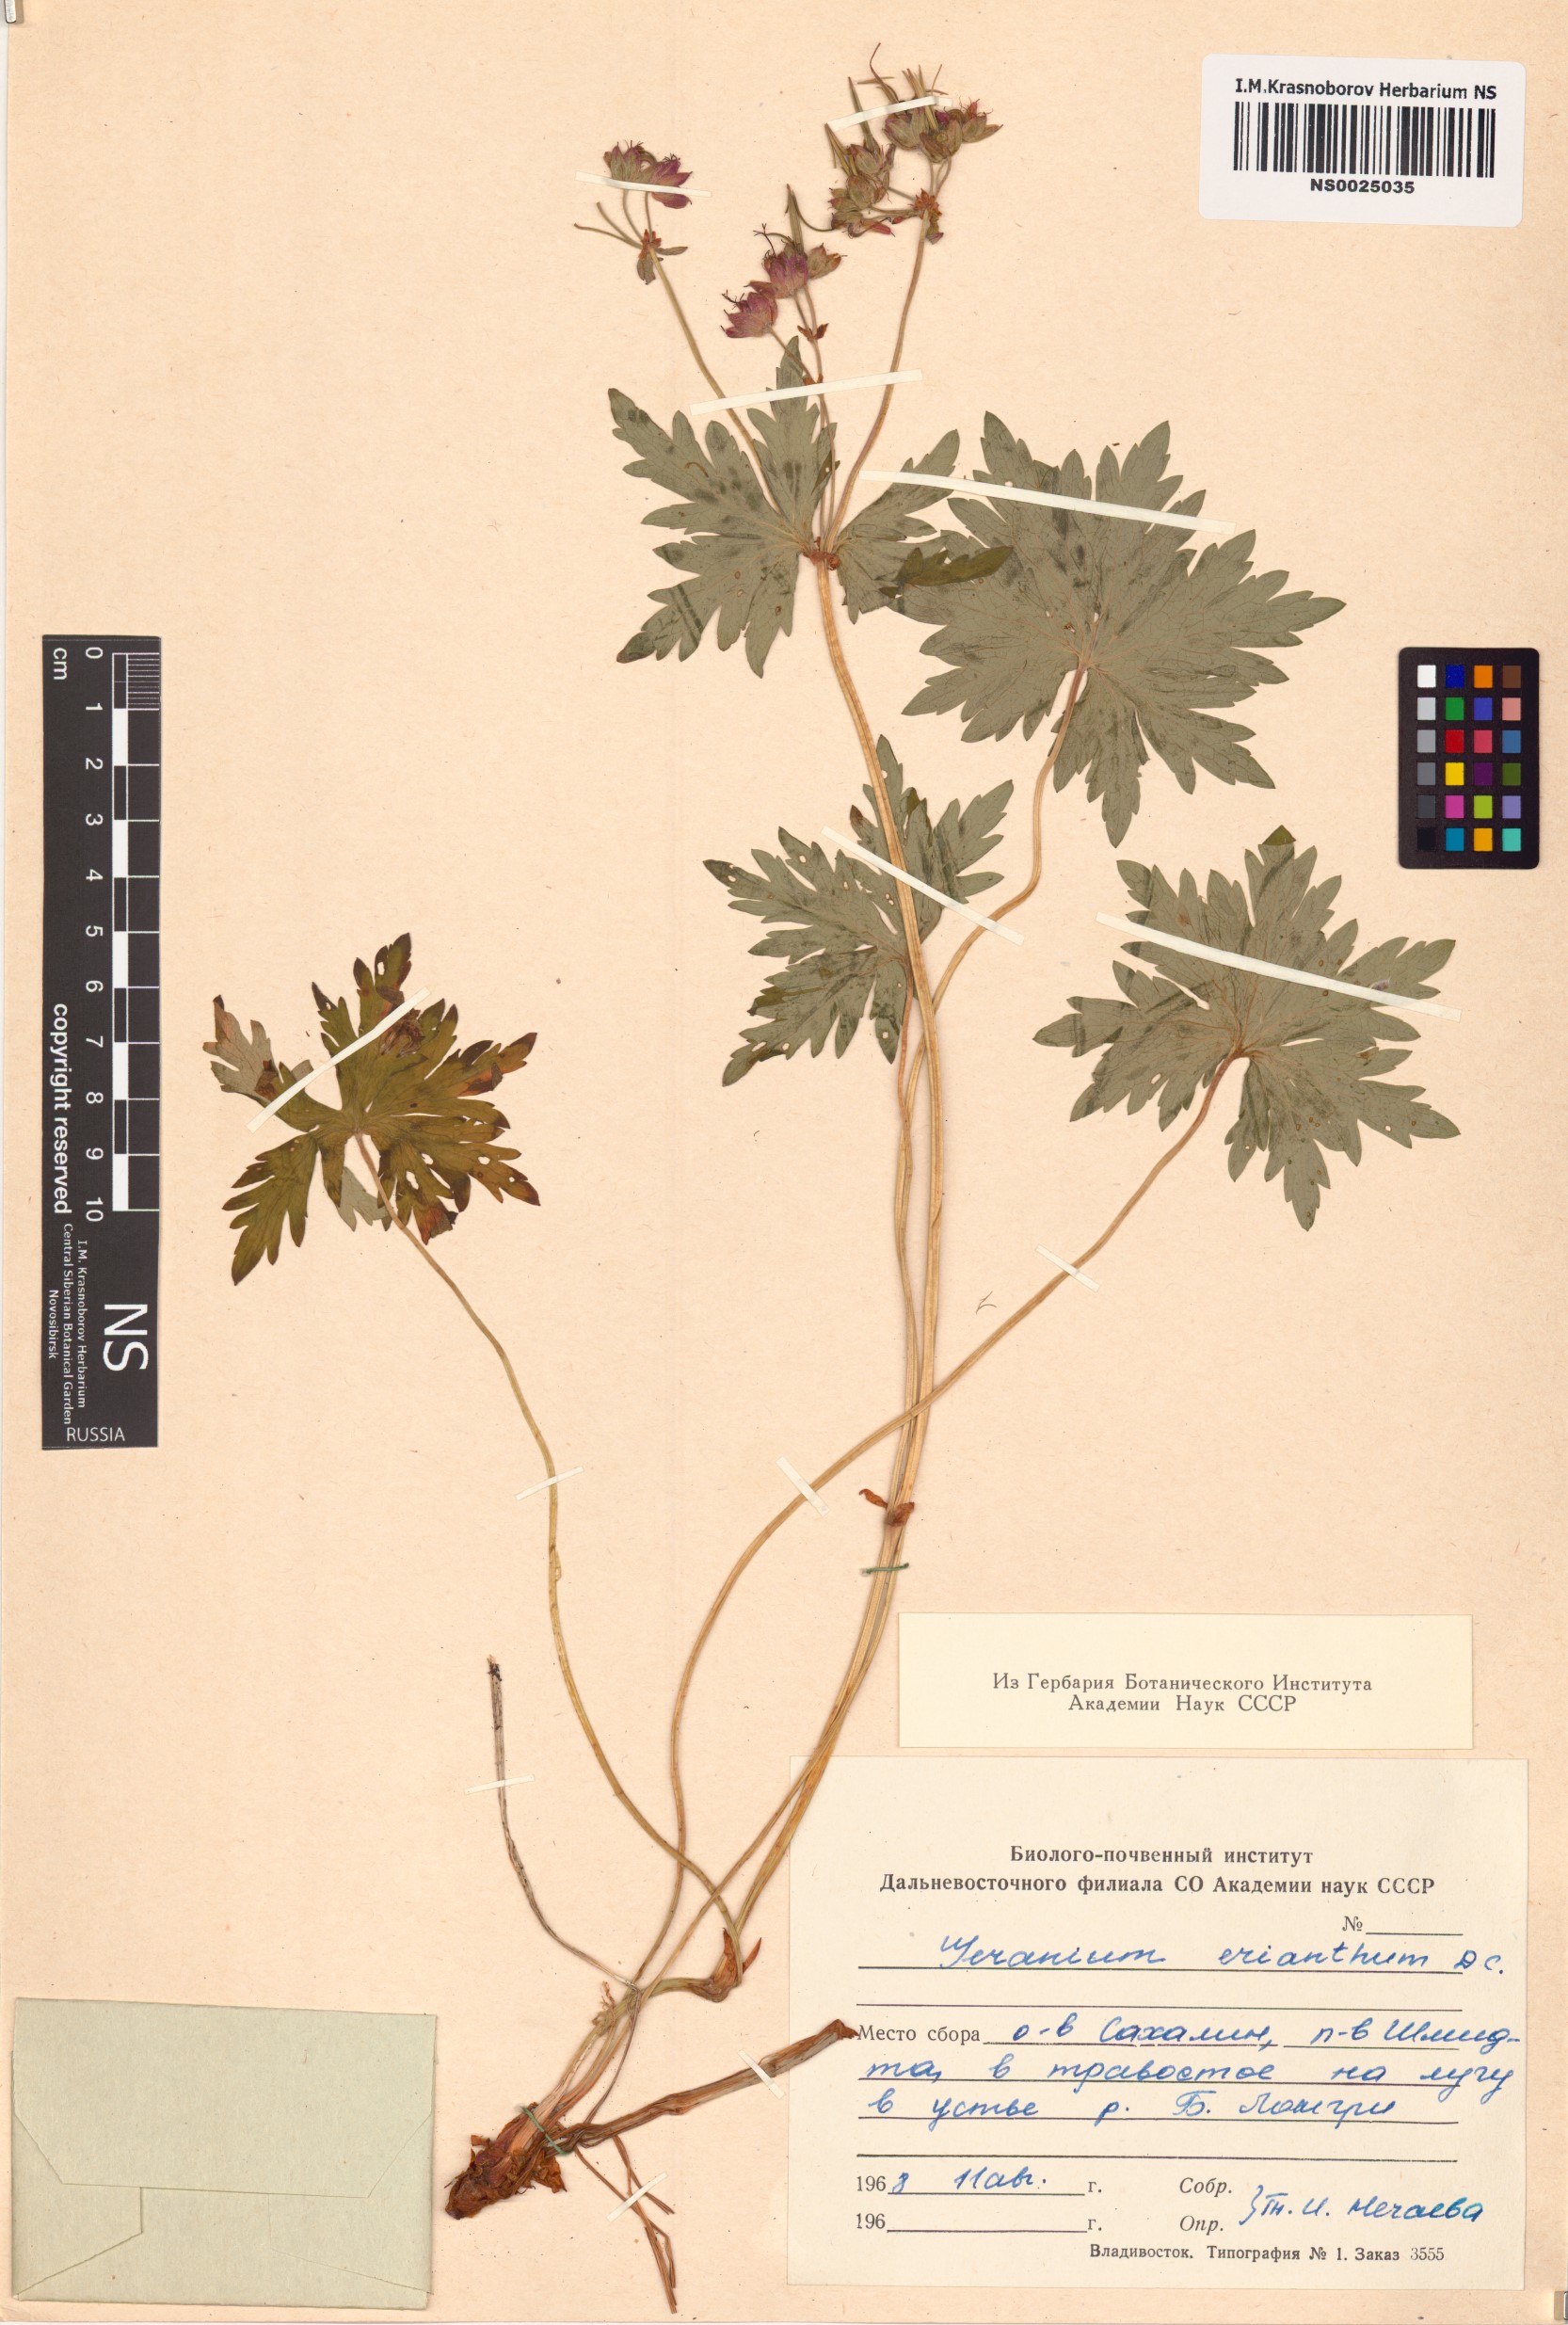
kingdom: Plantae
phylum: Tracheophyta
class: Magnoliopsida
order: Geraniales
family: Geraniaceae
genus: Geranium
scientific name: Geranium erianthum
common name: Northern crane's-bill
